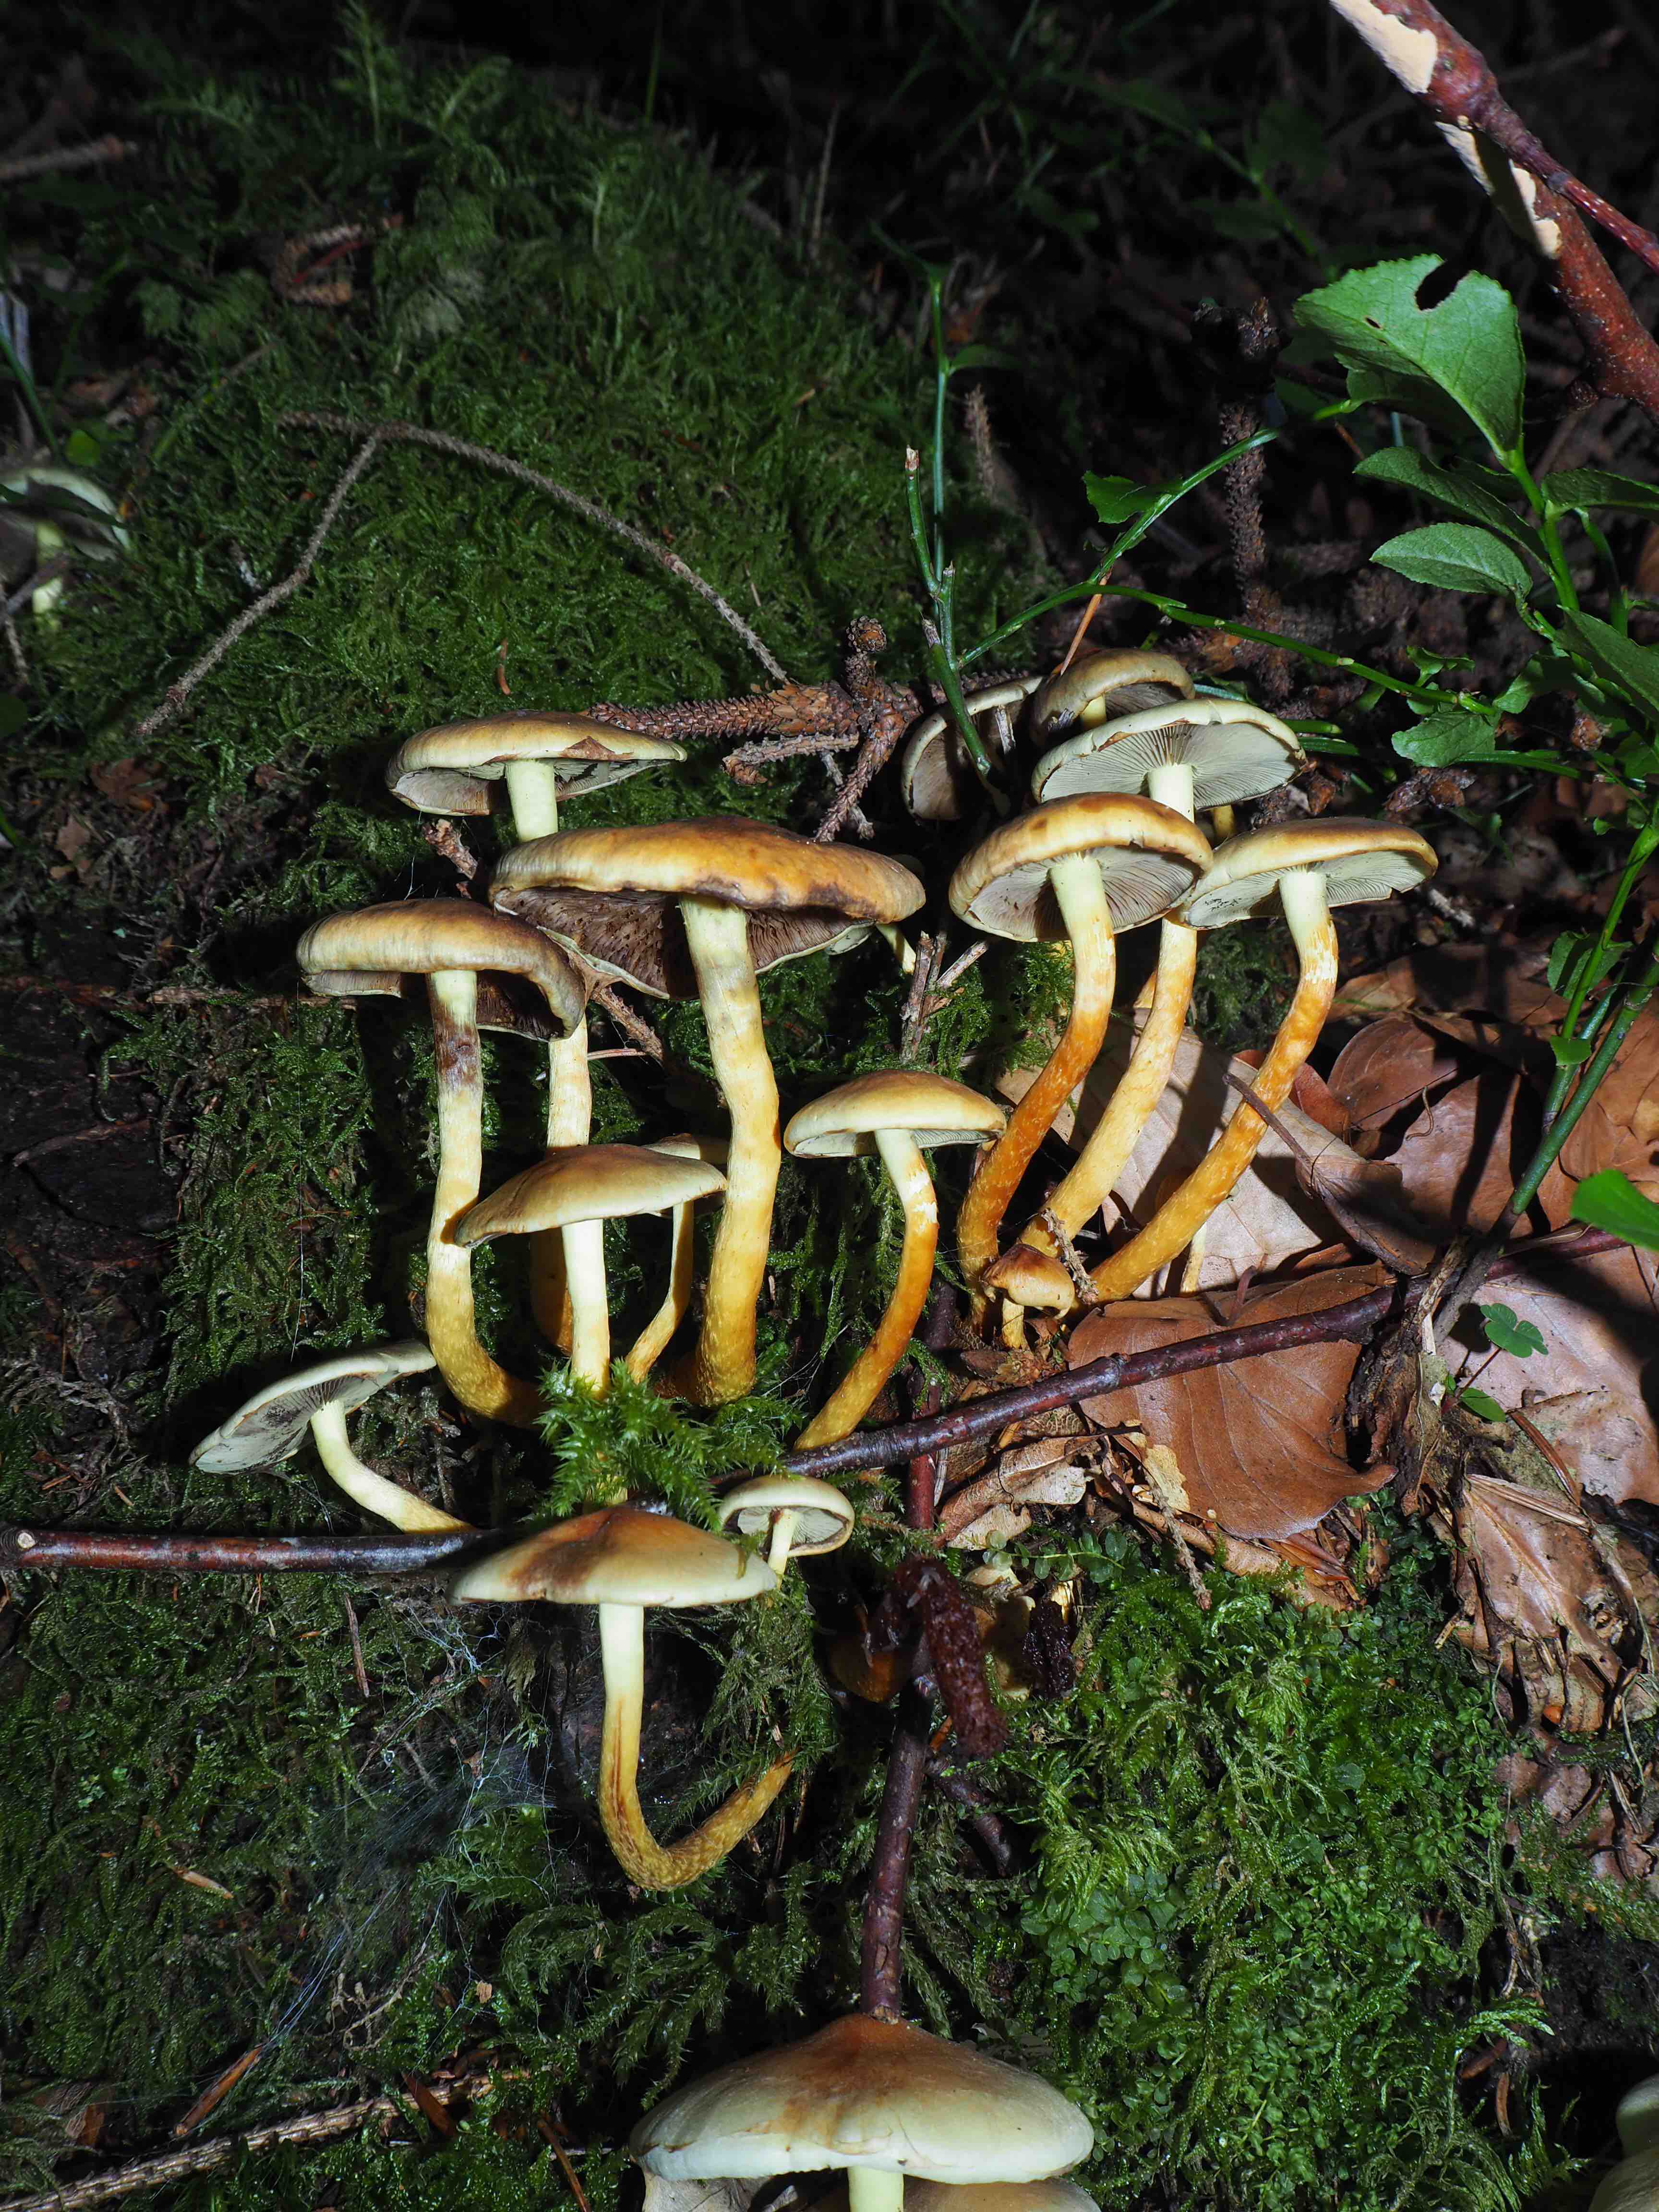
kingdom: Fungi
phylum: Basidiomycota
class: Agaricomycetes
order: Agaricales
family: Strophariaceae
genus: Hypholoma
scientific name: Hypholoma fasciculare
